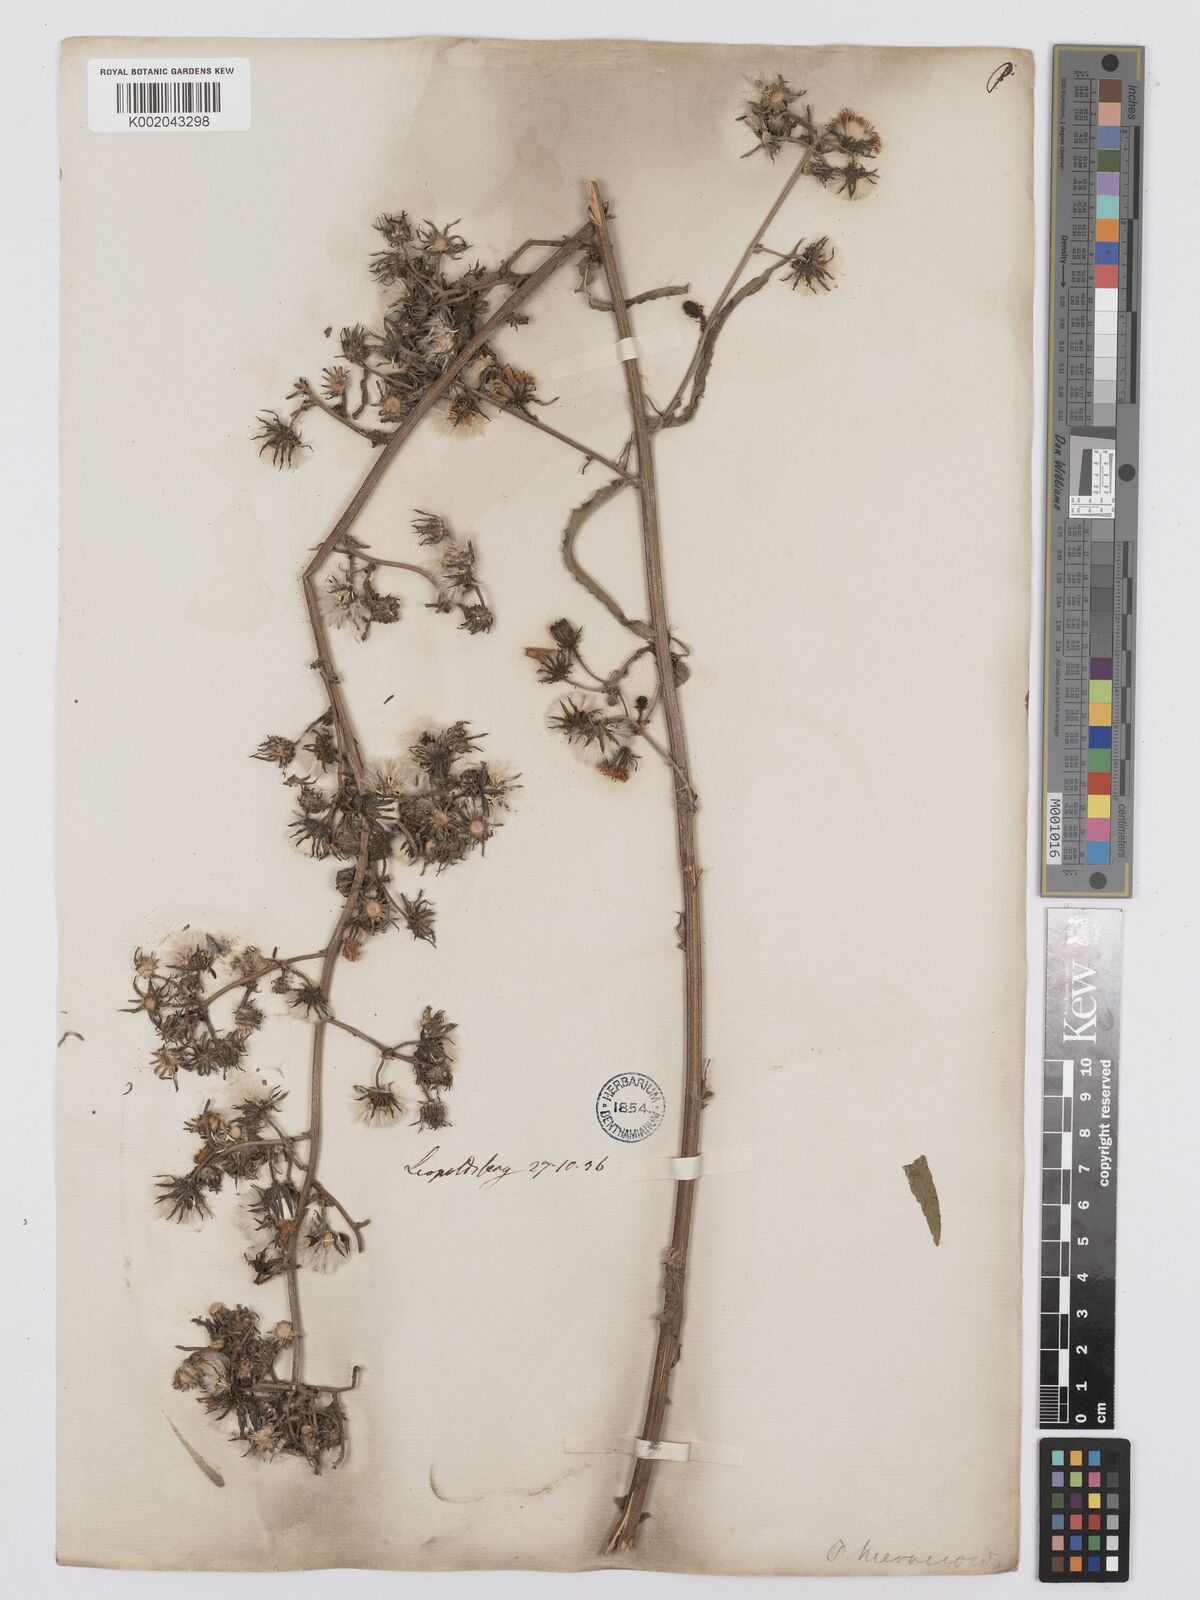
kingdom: Plantae
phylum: Tracheophyta
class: Magnoliopsida
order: Asterales
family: Asteraceae
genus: Picris
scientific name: Picris hieracioides
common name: Hawkweed oxtongue
